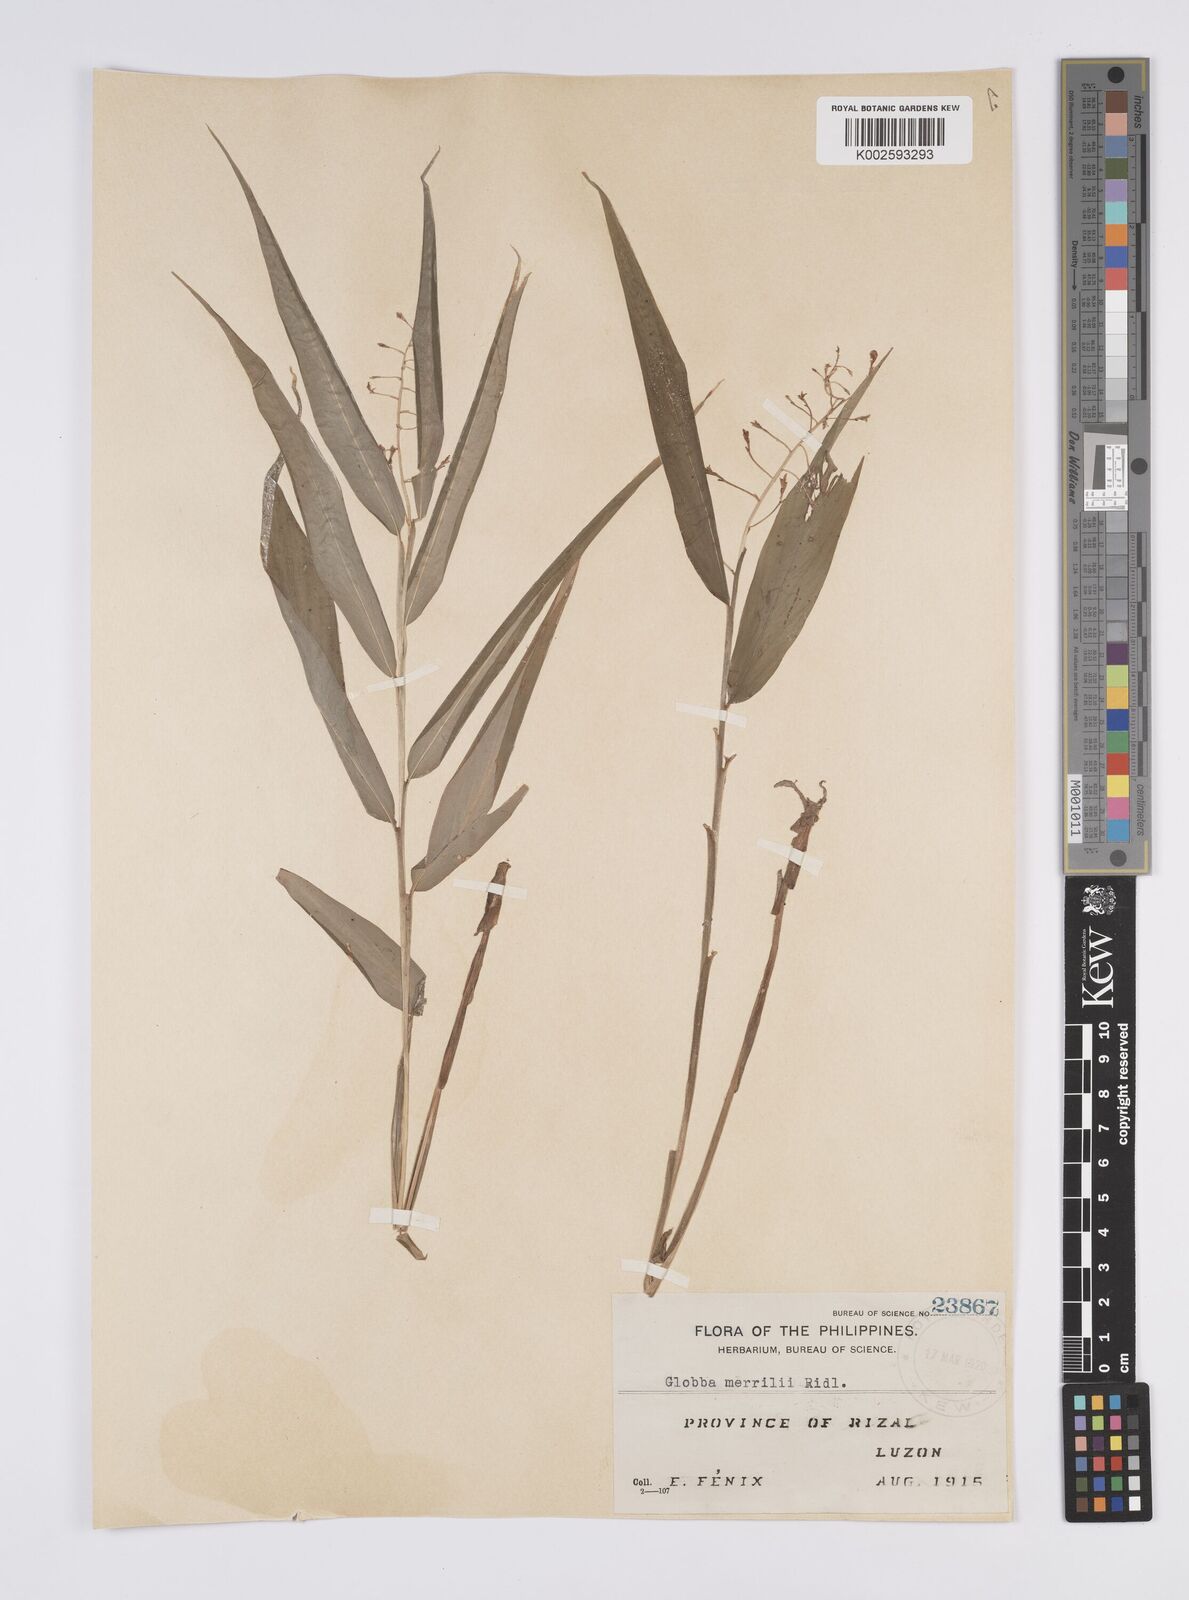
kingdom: Plantae
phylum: Tracheophyta
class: Liliopsida
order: Zingiberales
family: Zingiberaceae
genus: Globba
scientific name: Globba campsophylla
